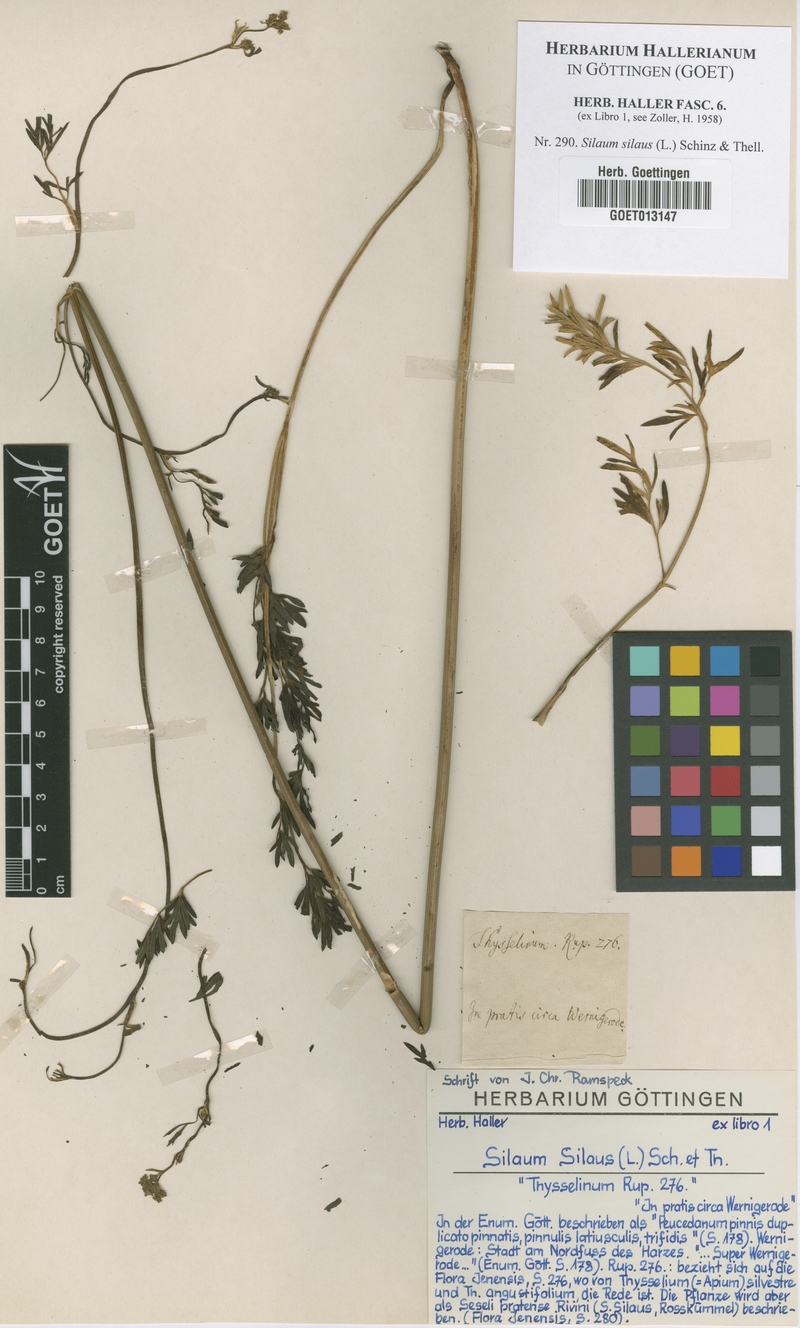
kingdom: Plantae
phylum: Tracheophyta
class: Magnoliopsida
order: Apiales
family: Apiaceae
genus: Silaum
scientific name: Silaum silaus
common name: Pepper-saxifrage
